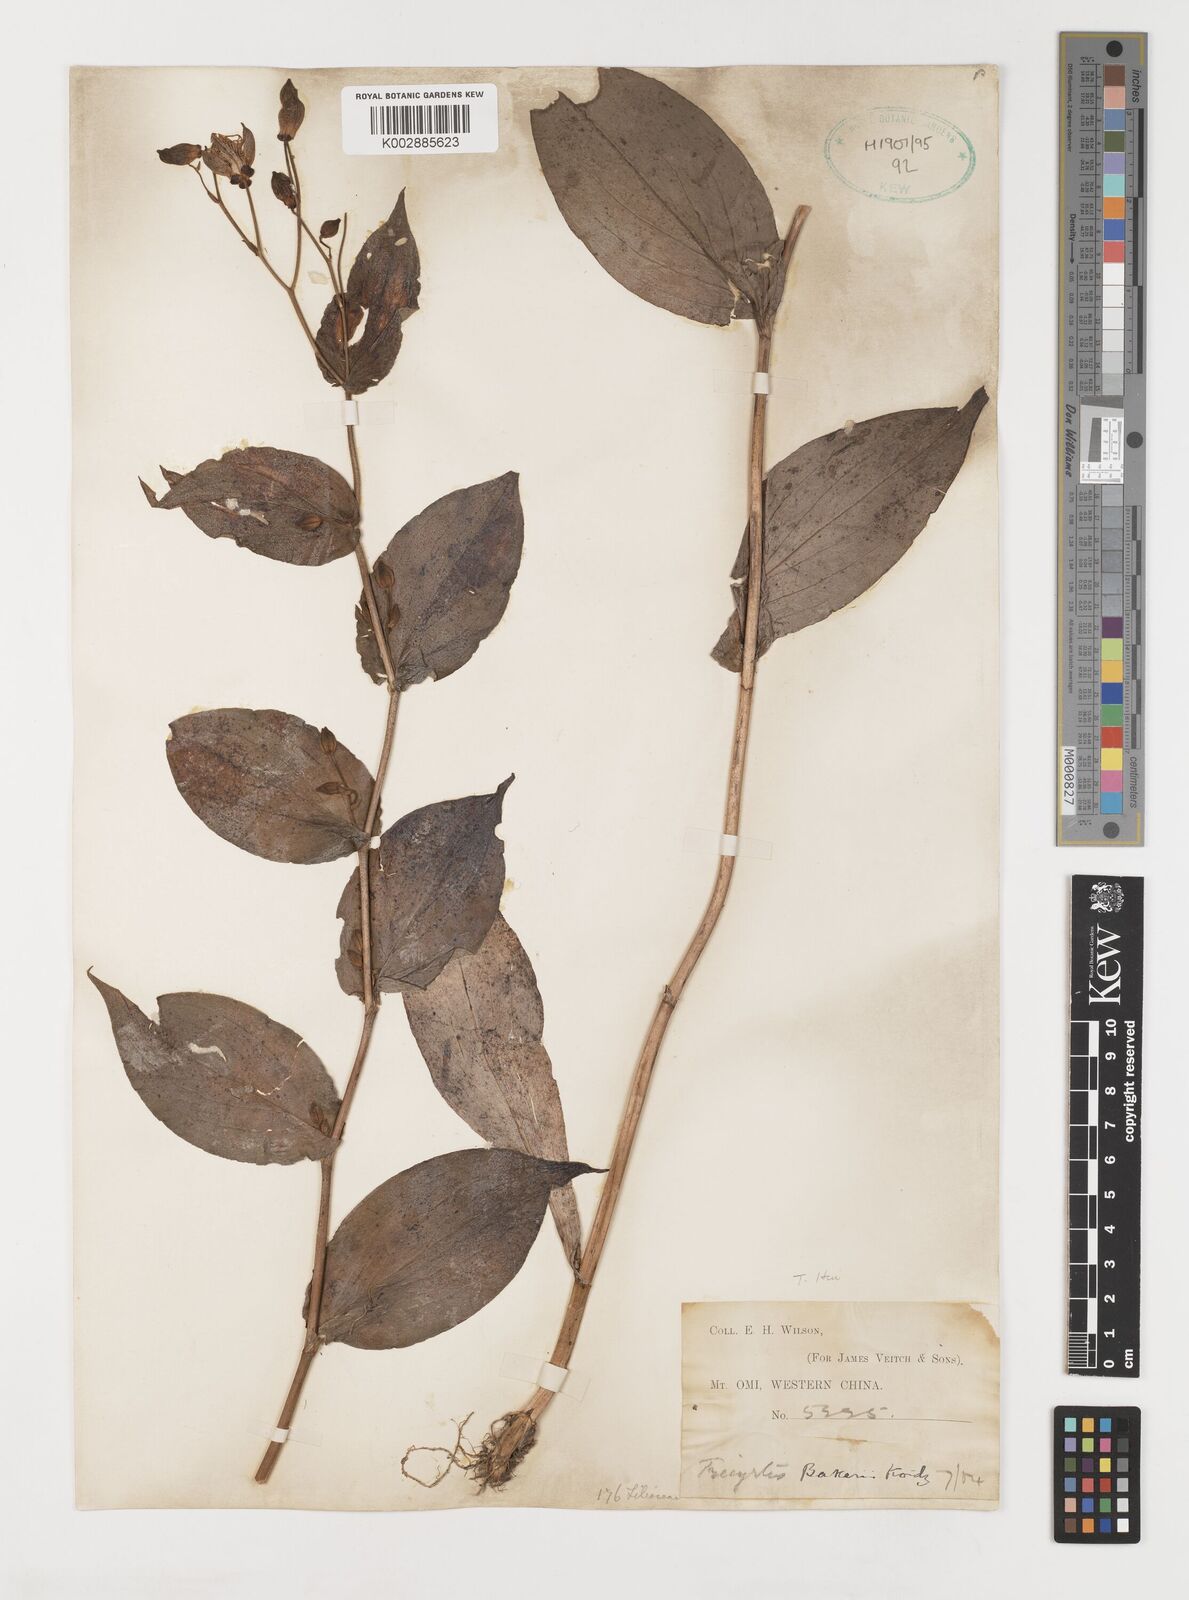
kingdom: Plantae
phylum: Tracheophyta
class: Liliopsida
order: Liliales
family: Liliaceae
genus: Tricyrtis
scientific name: Tricyrtis latifolia
